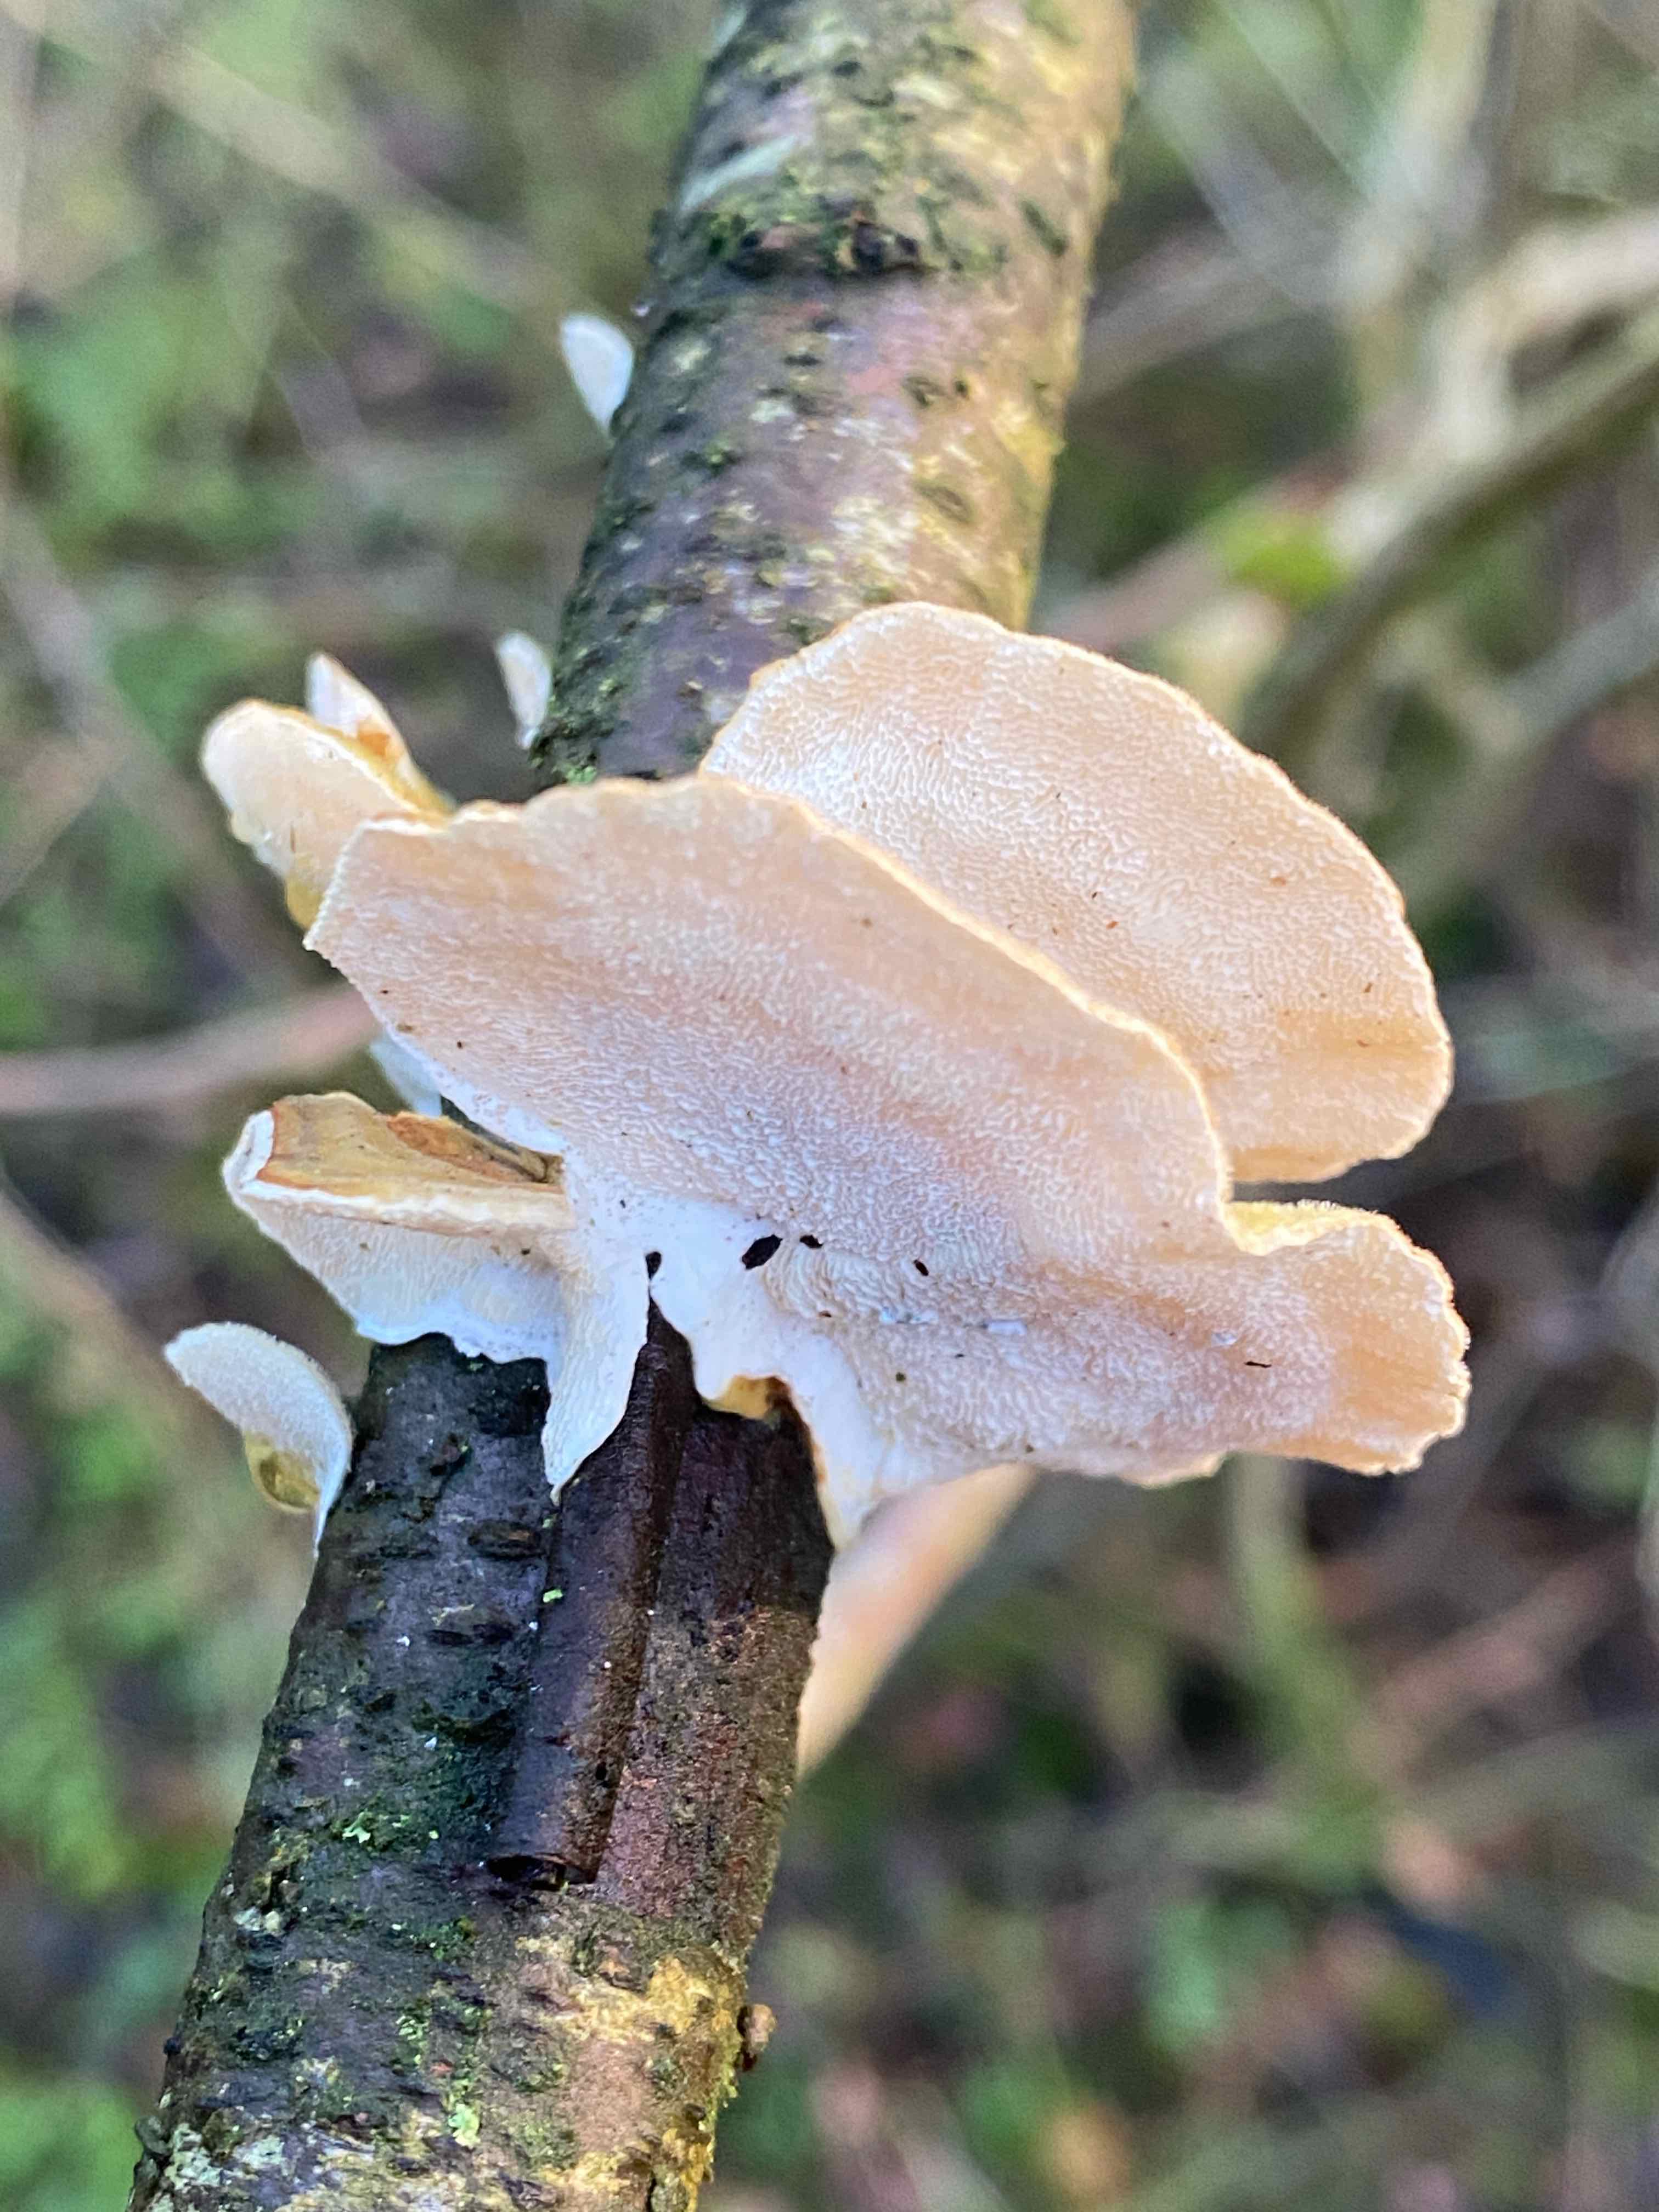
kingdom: Fungi
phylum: Basidiomycota
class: Agaricomycetes
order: Russulales
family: Stereaceae
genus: Stereum
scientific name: Stereum hirsutum
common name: håret lædersvamp
